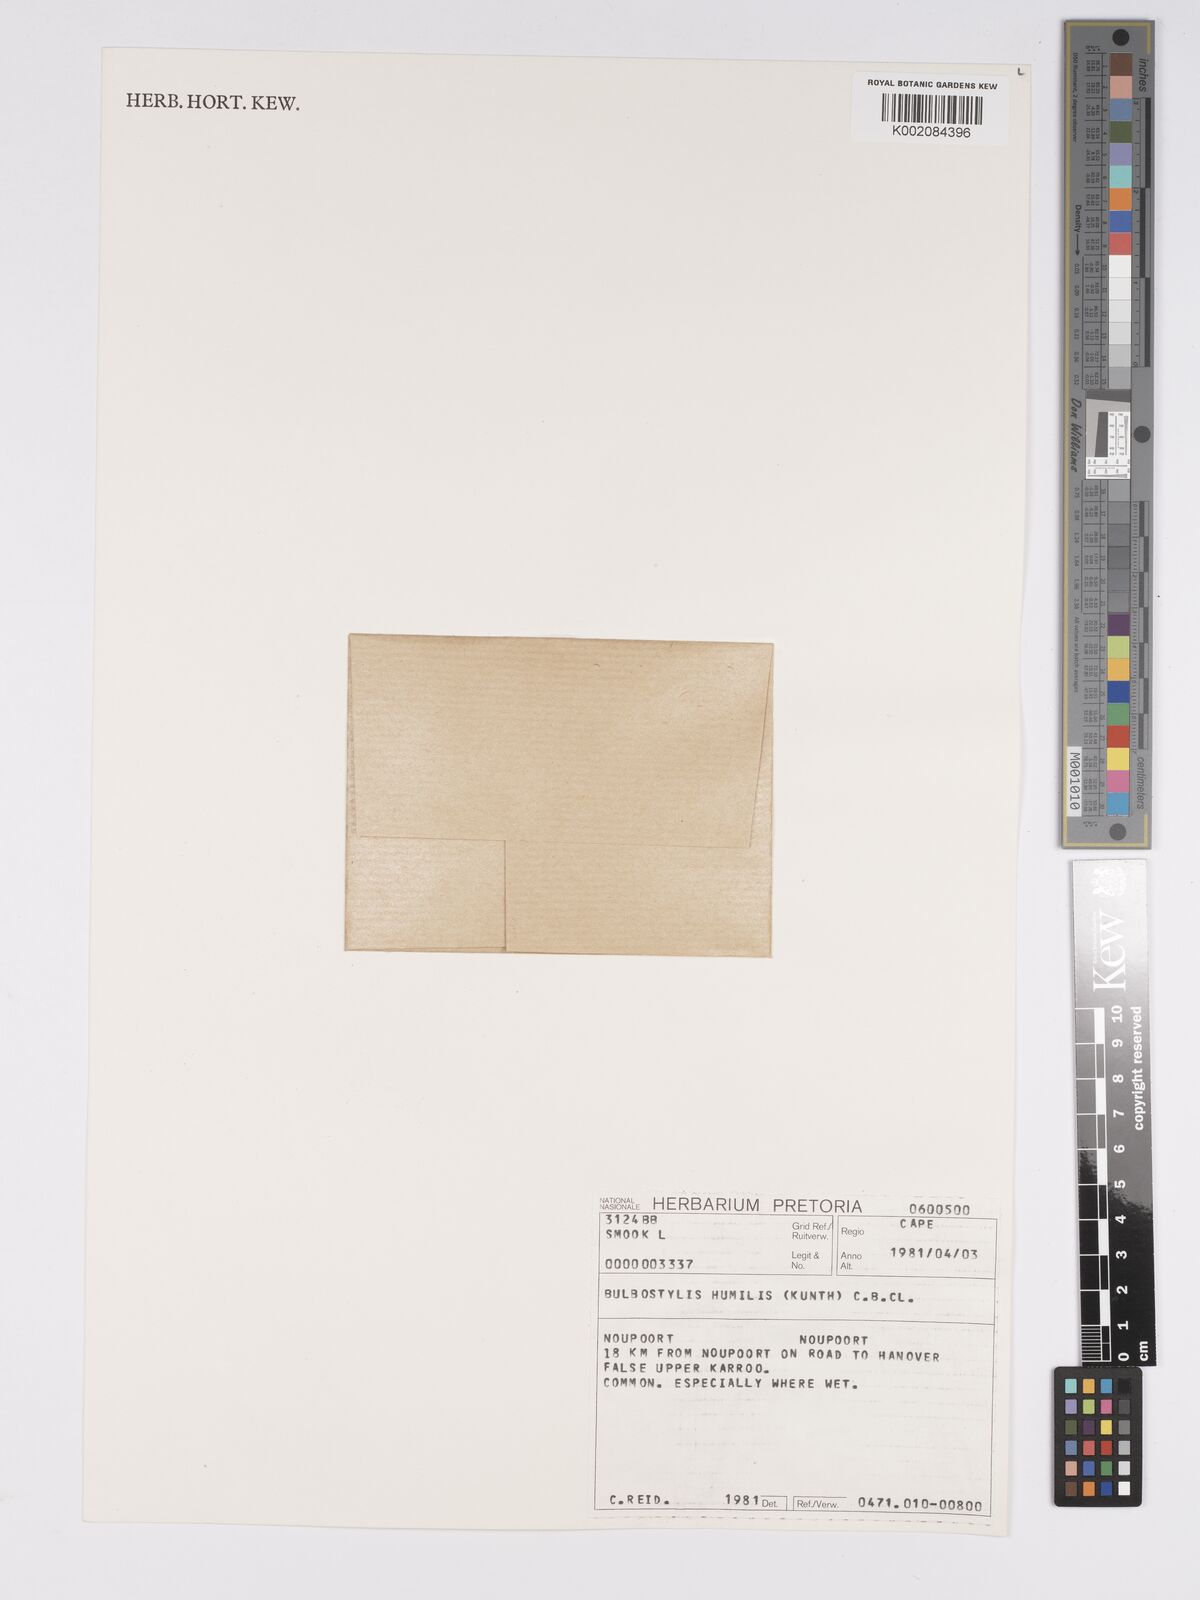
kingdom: Plantae
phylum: Tracheophyta
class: Liliopsida
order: Poales
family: Cyperaceae
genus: Bulbostylis
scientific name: Bulbostylis humilis
